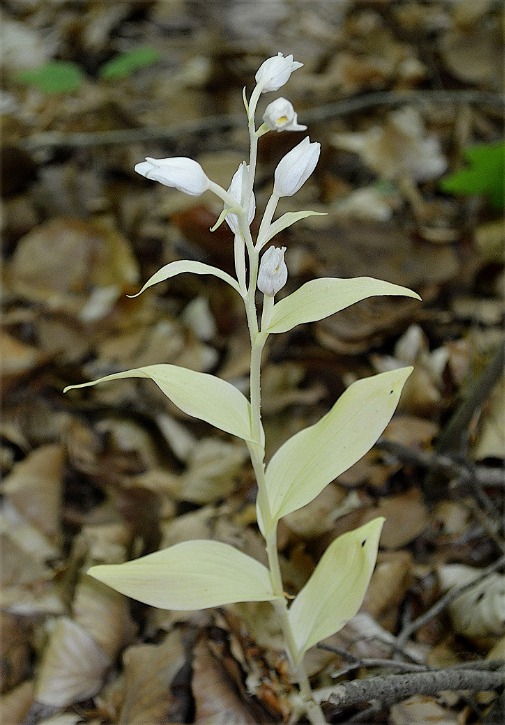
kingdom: Plantae
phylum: Tracheophyta
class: Liliopsida
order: Asparagales
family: Orchidaceae
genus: Cephalanthera
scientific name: Cephalanthera damasonium
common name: Hvidgul skovlilje
